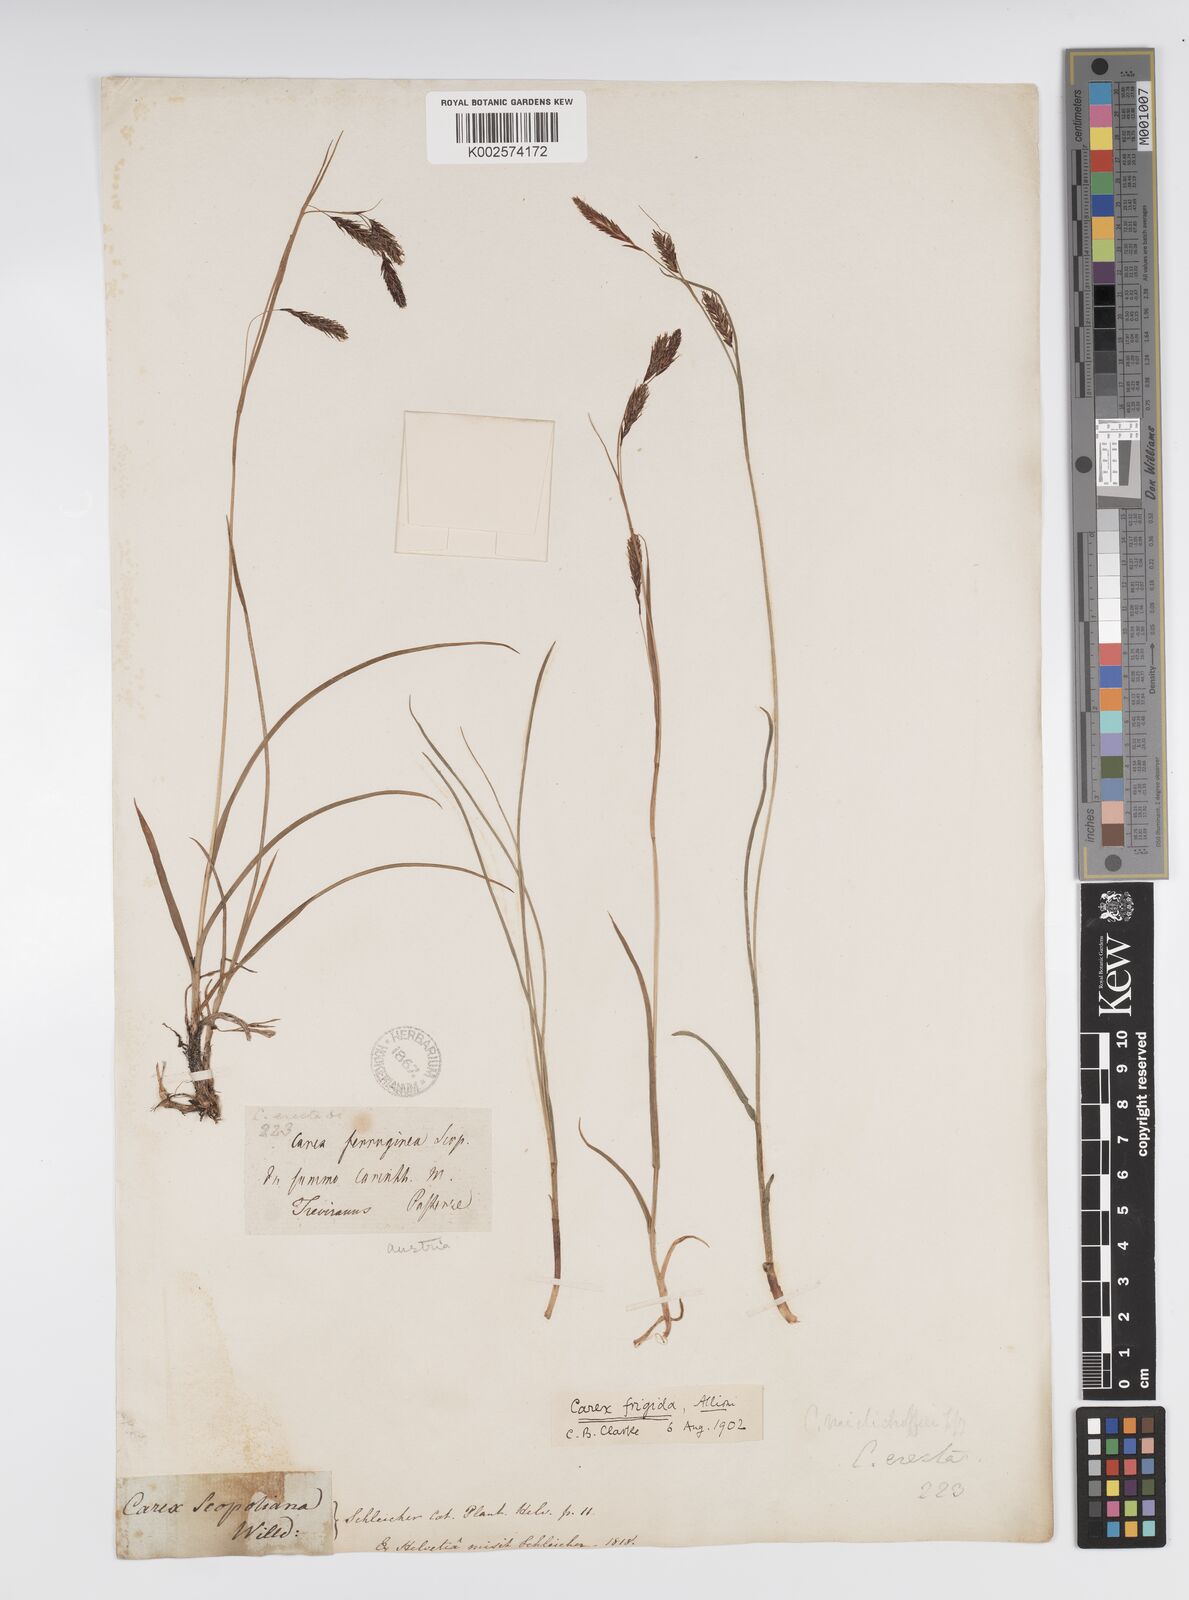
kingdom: Plantae
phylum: Tracheophyta
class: Liliopsida
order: Poales
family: Cyperaceae
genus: Carex
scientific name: Carex frigida
